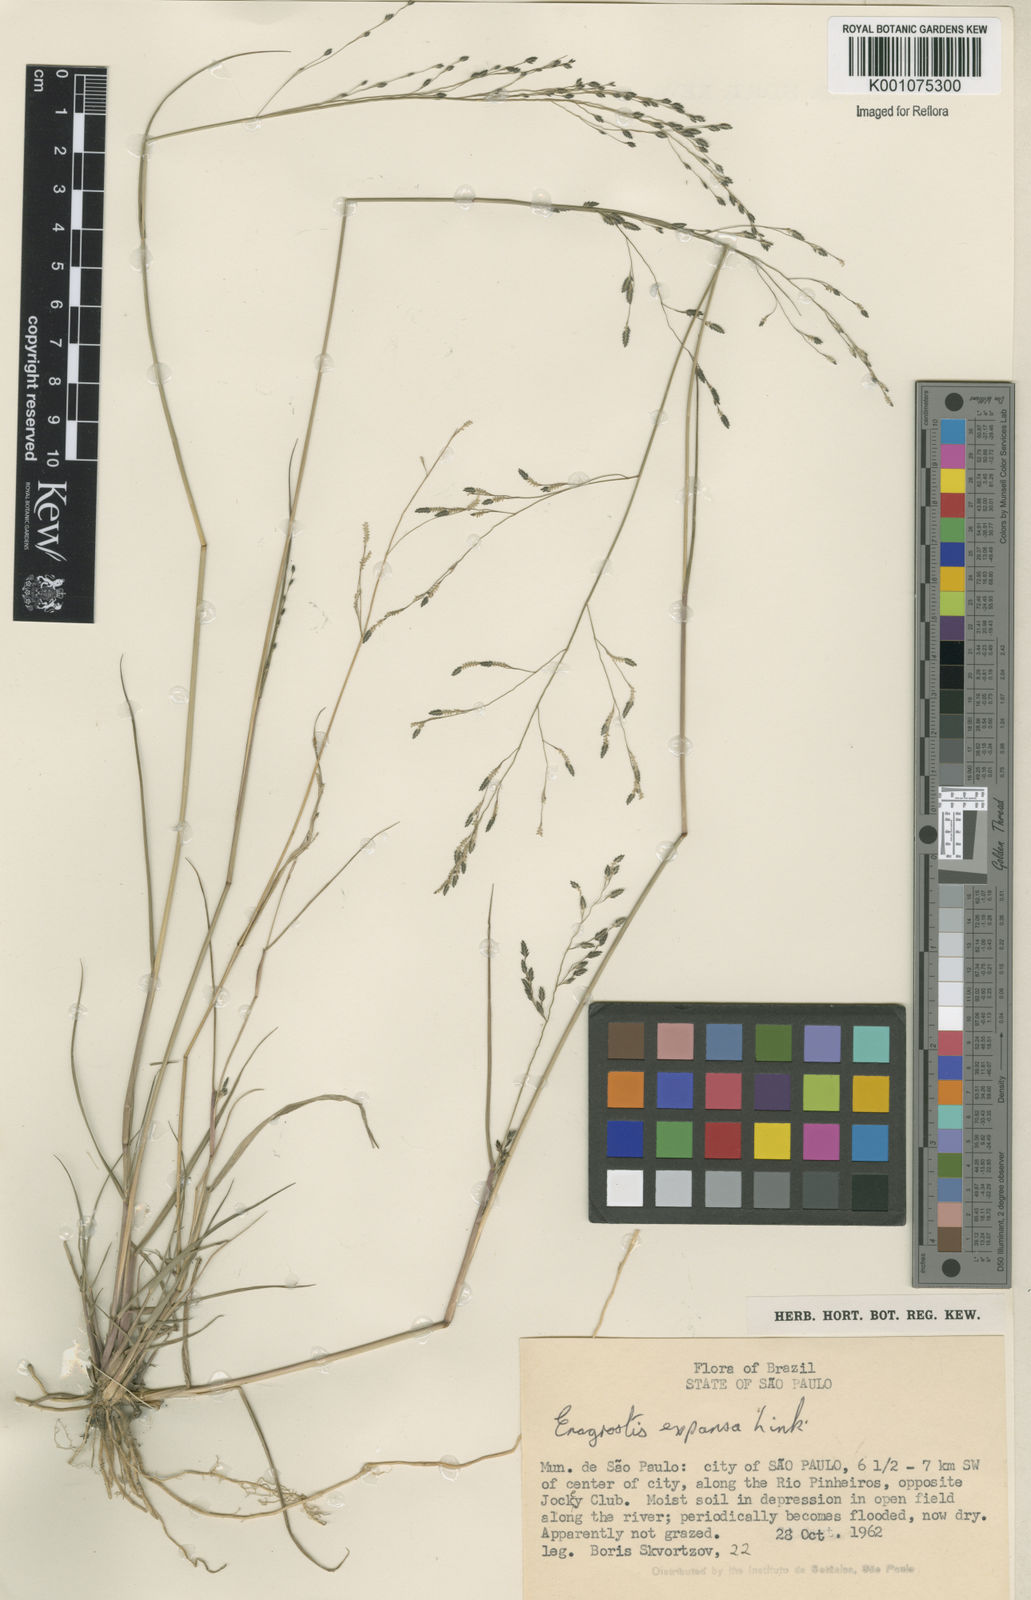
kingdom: Plantae
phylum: Tracheophyta
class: Liliopsida
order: Poales
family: Poaceae
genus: Eragrostis
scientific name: Eragrostis bahiensis
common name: Bahia lovegrass
